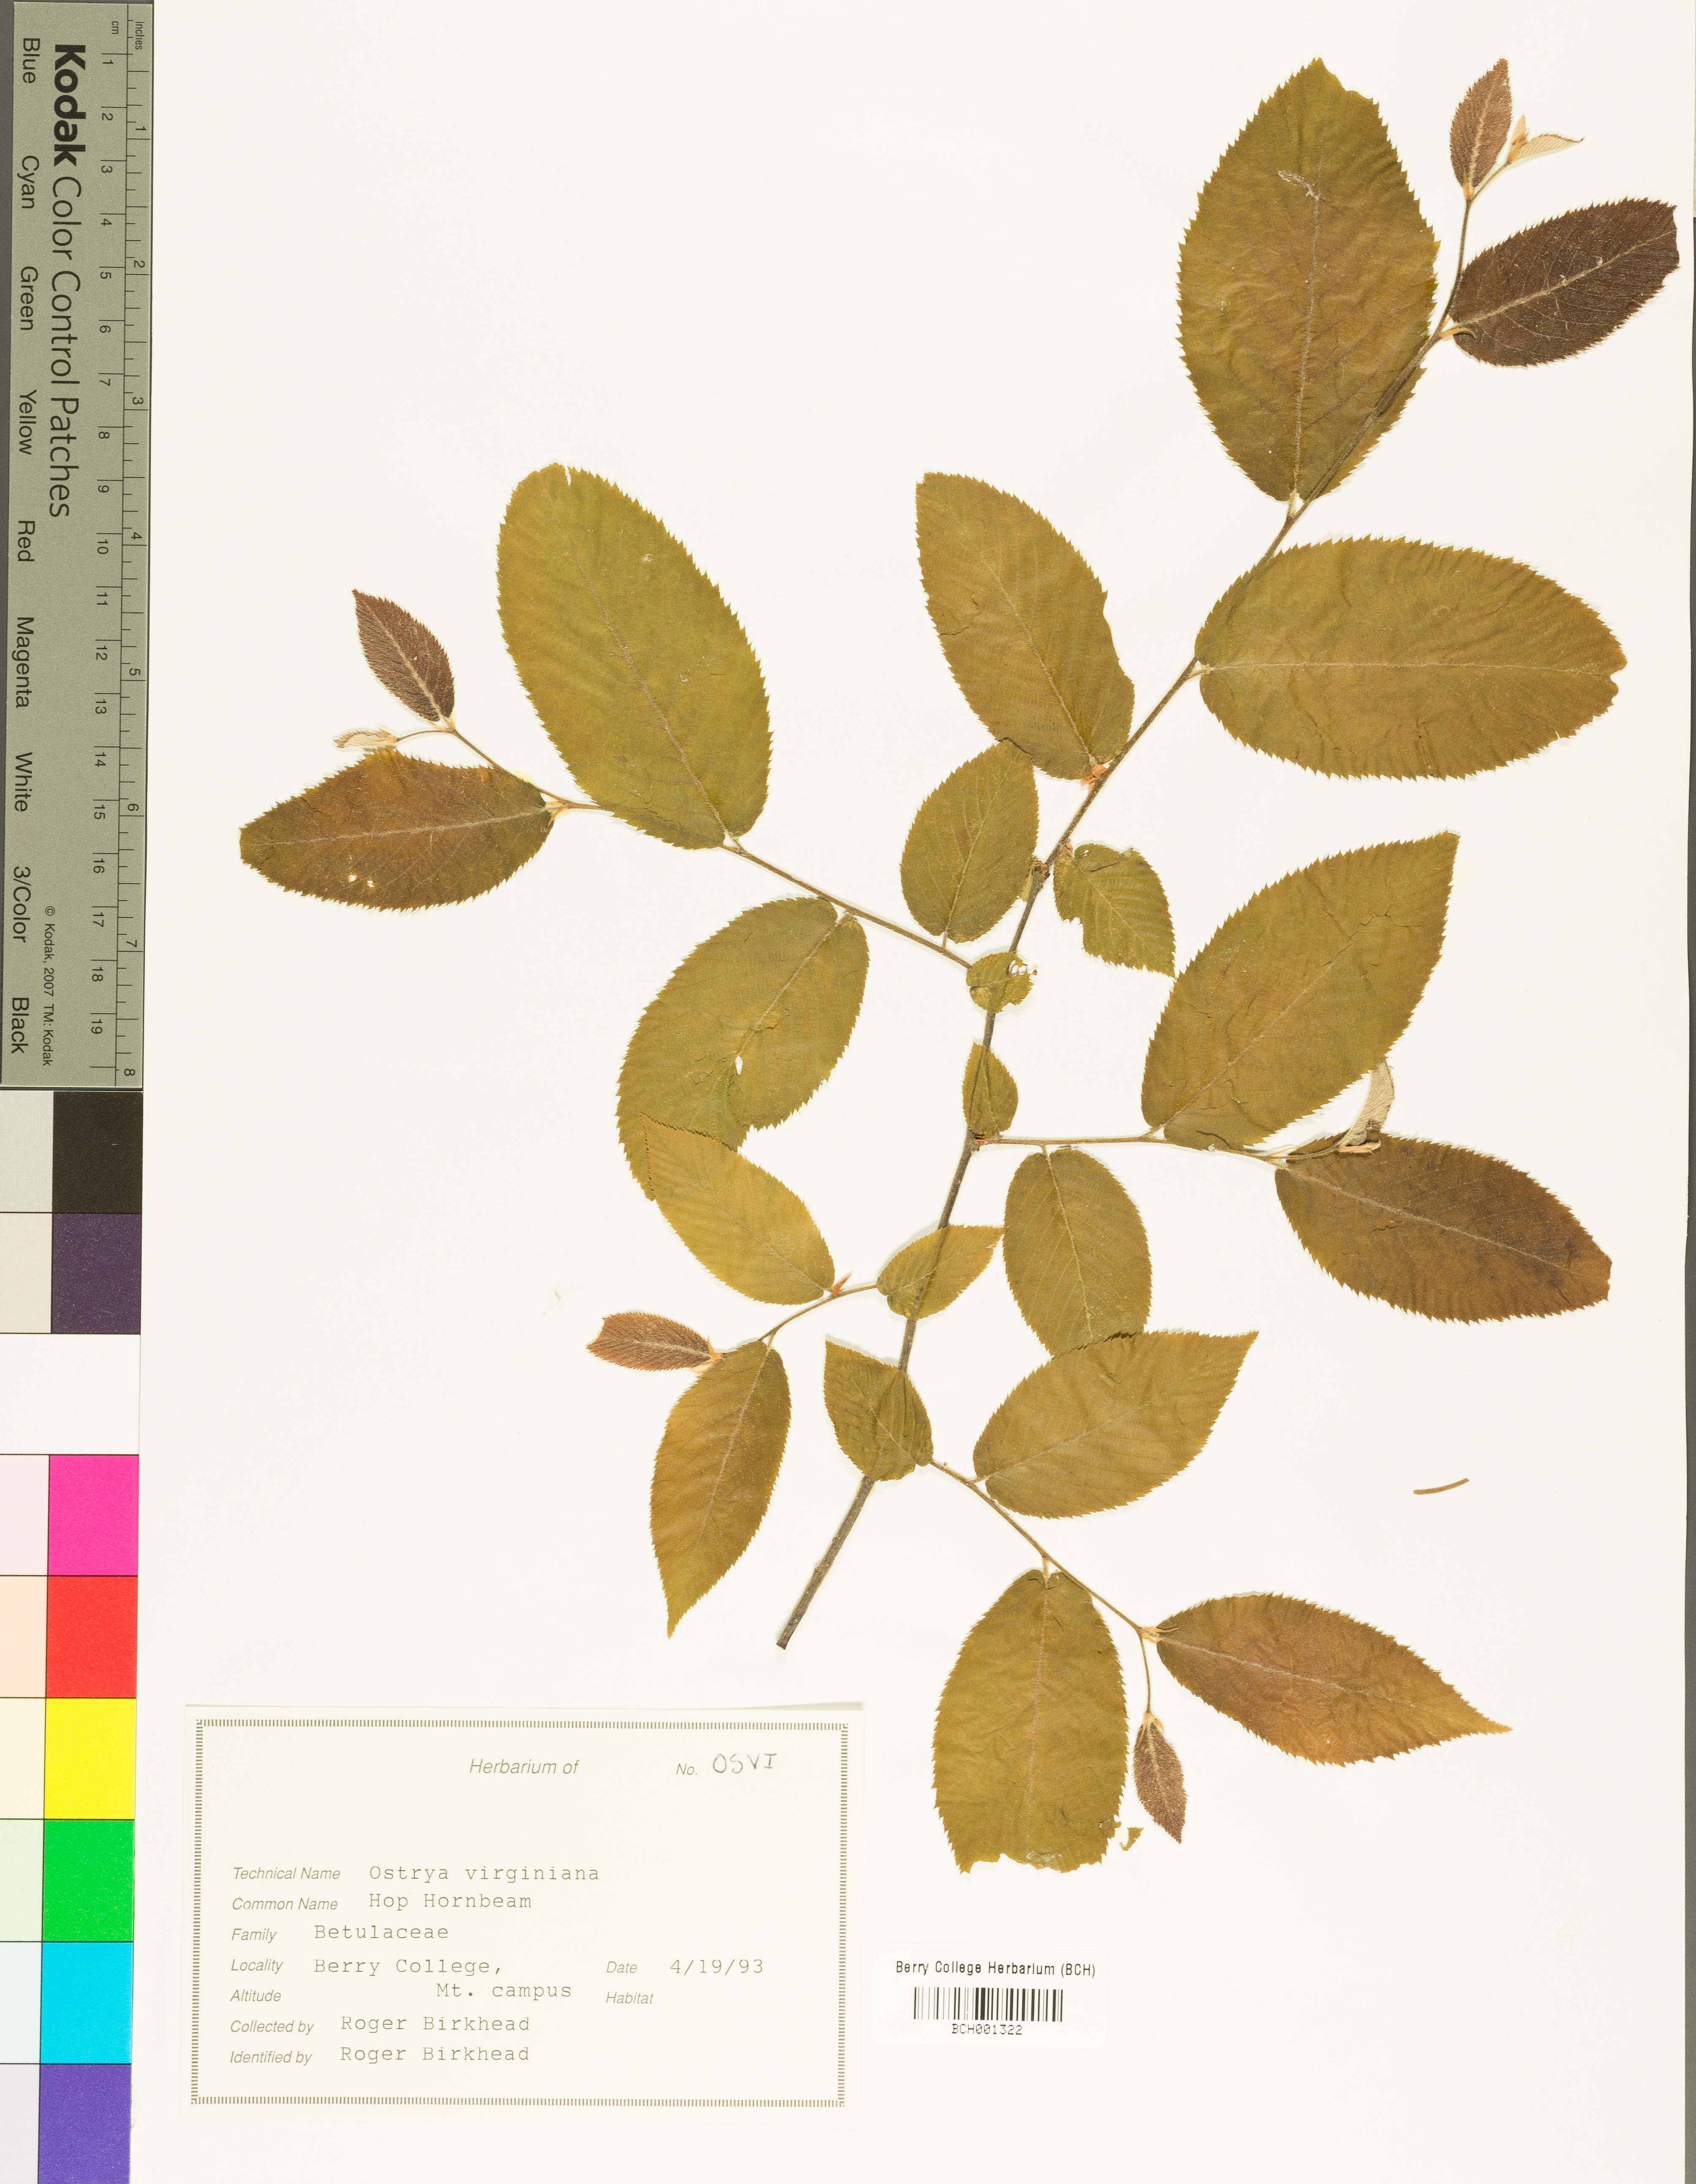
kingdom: Plantae
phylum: Tracheophyta
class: Magnoliopsida
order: Fagales
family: Betulaceae
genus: Ostrya
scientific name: Ostrya virginiana
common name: Ironwood
